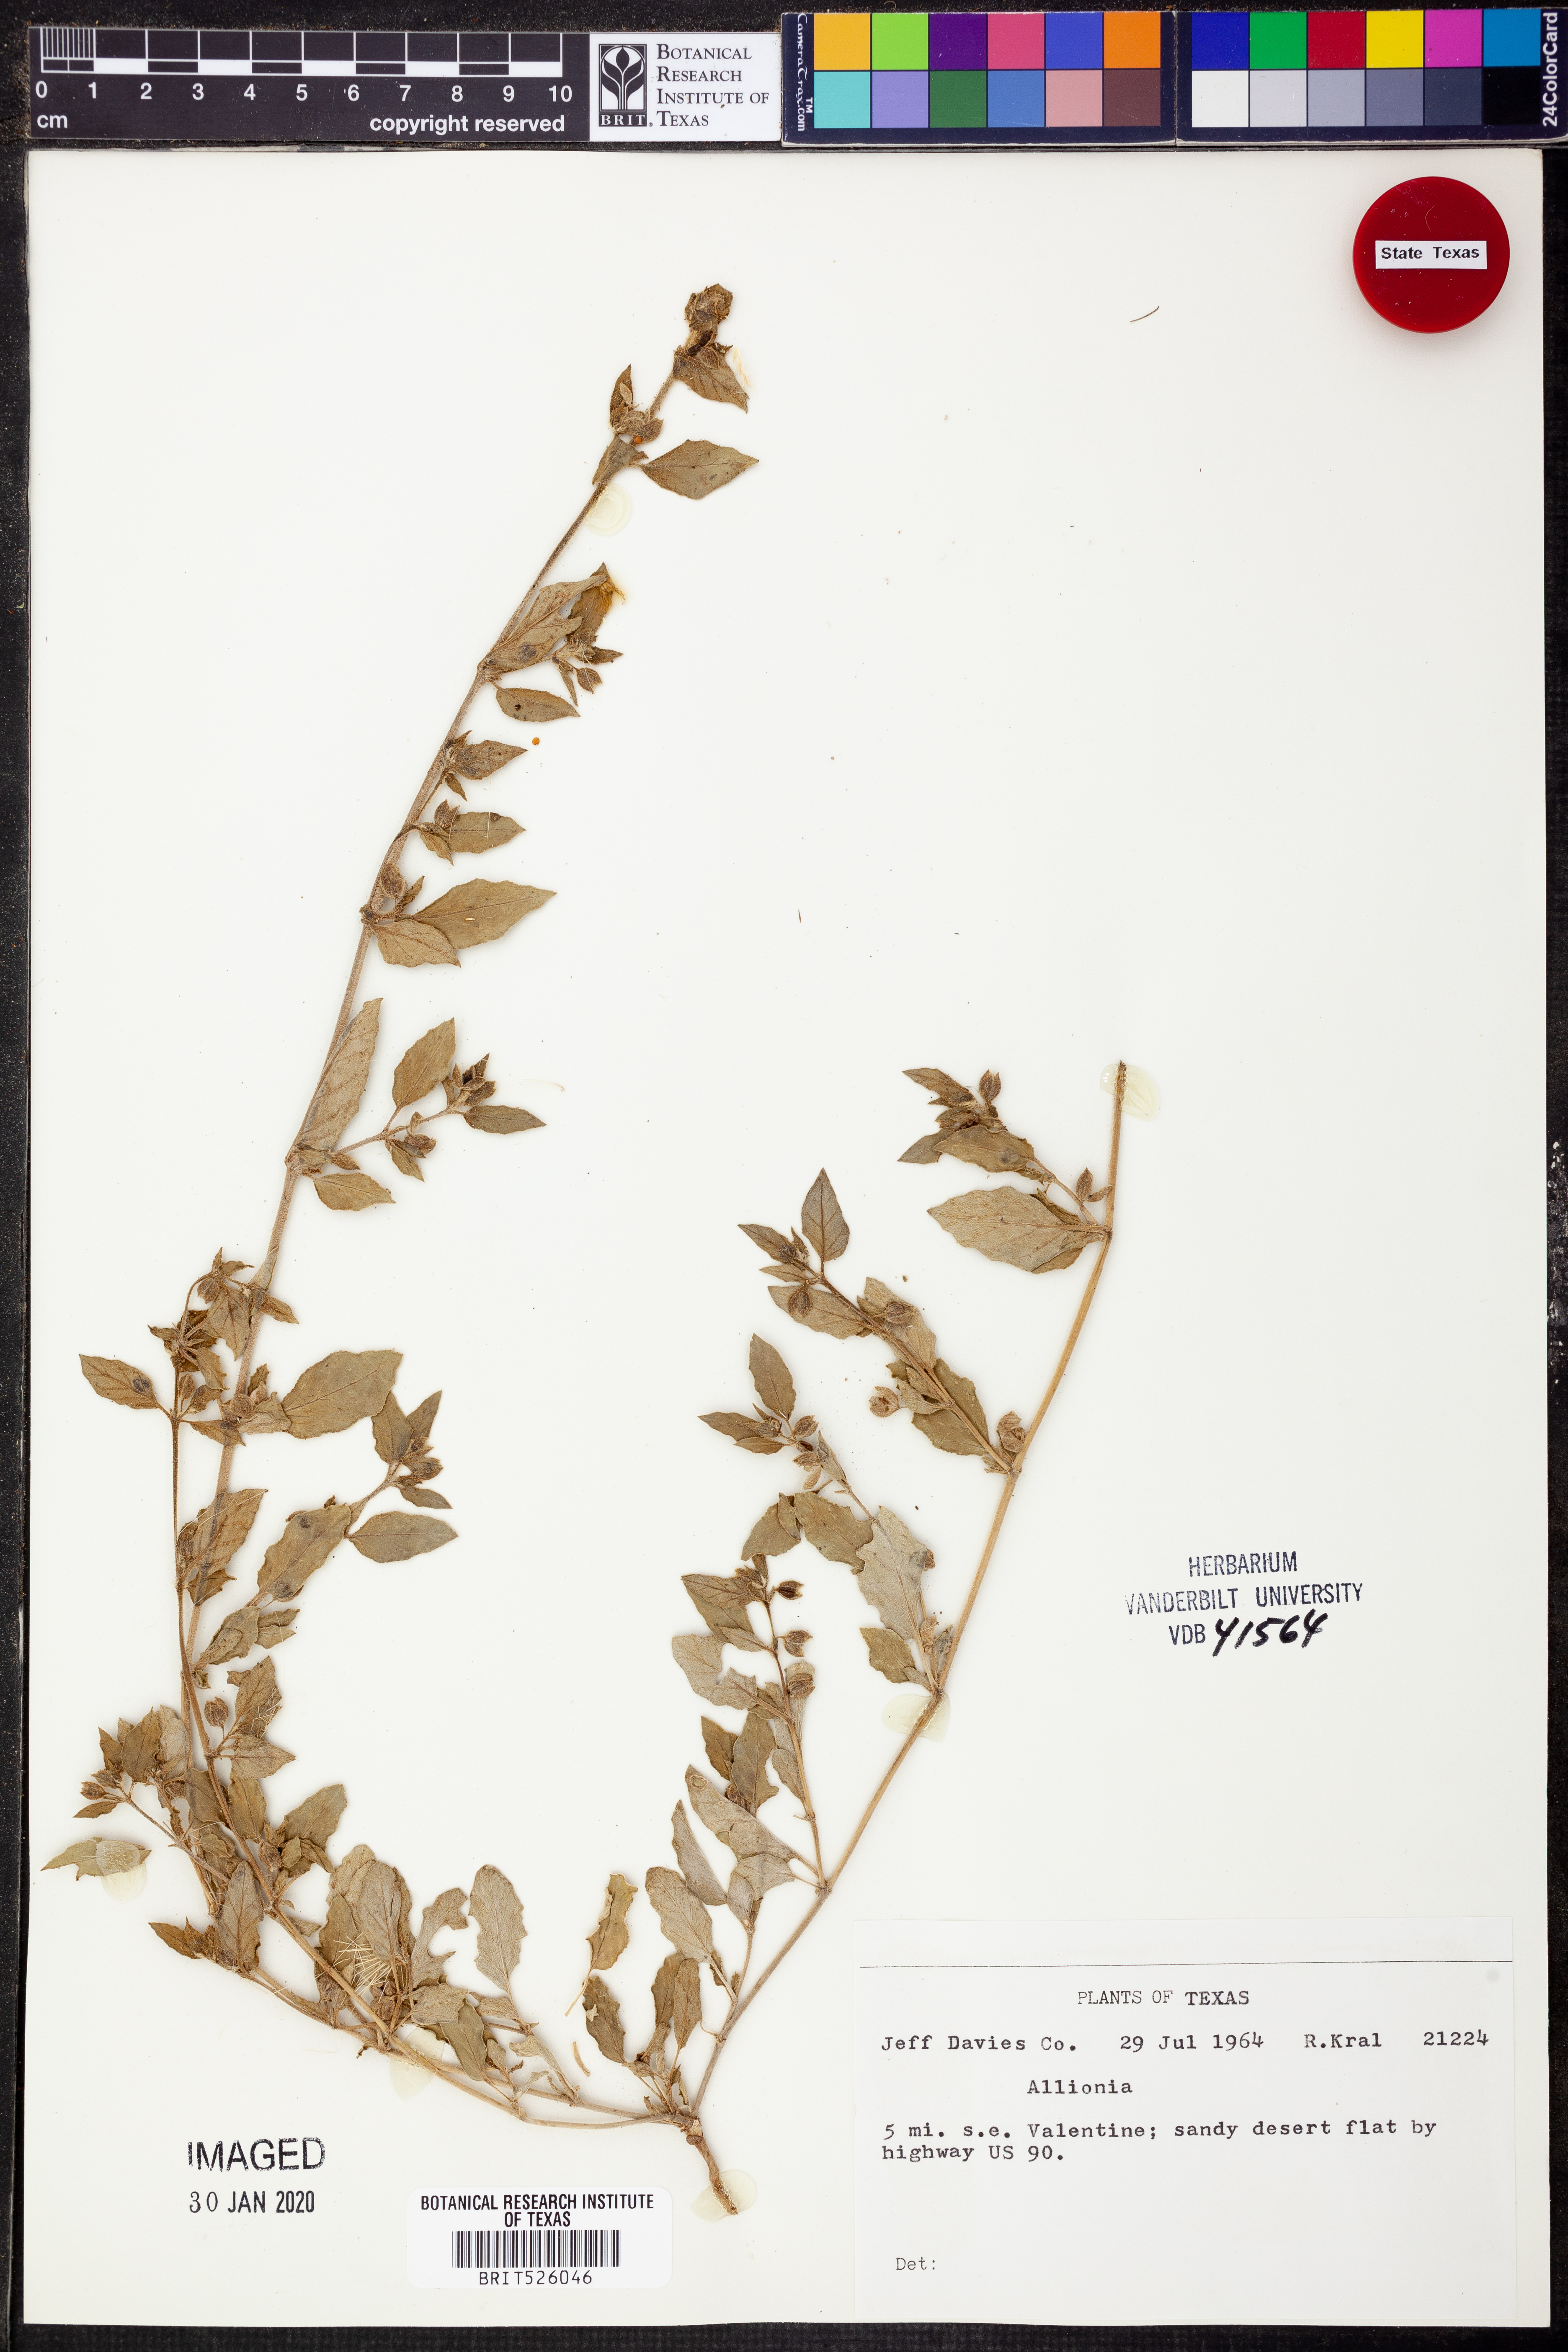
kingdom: Plantae
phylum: Tracheophyta
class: Magnoliopsida
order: Caryophyllales
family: Nyctaginaceae
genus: Allionia
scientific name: Allionia
